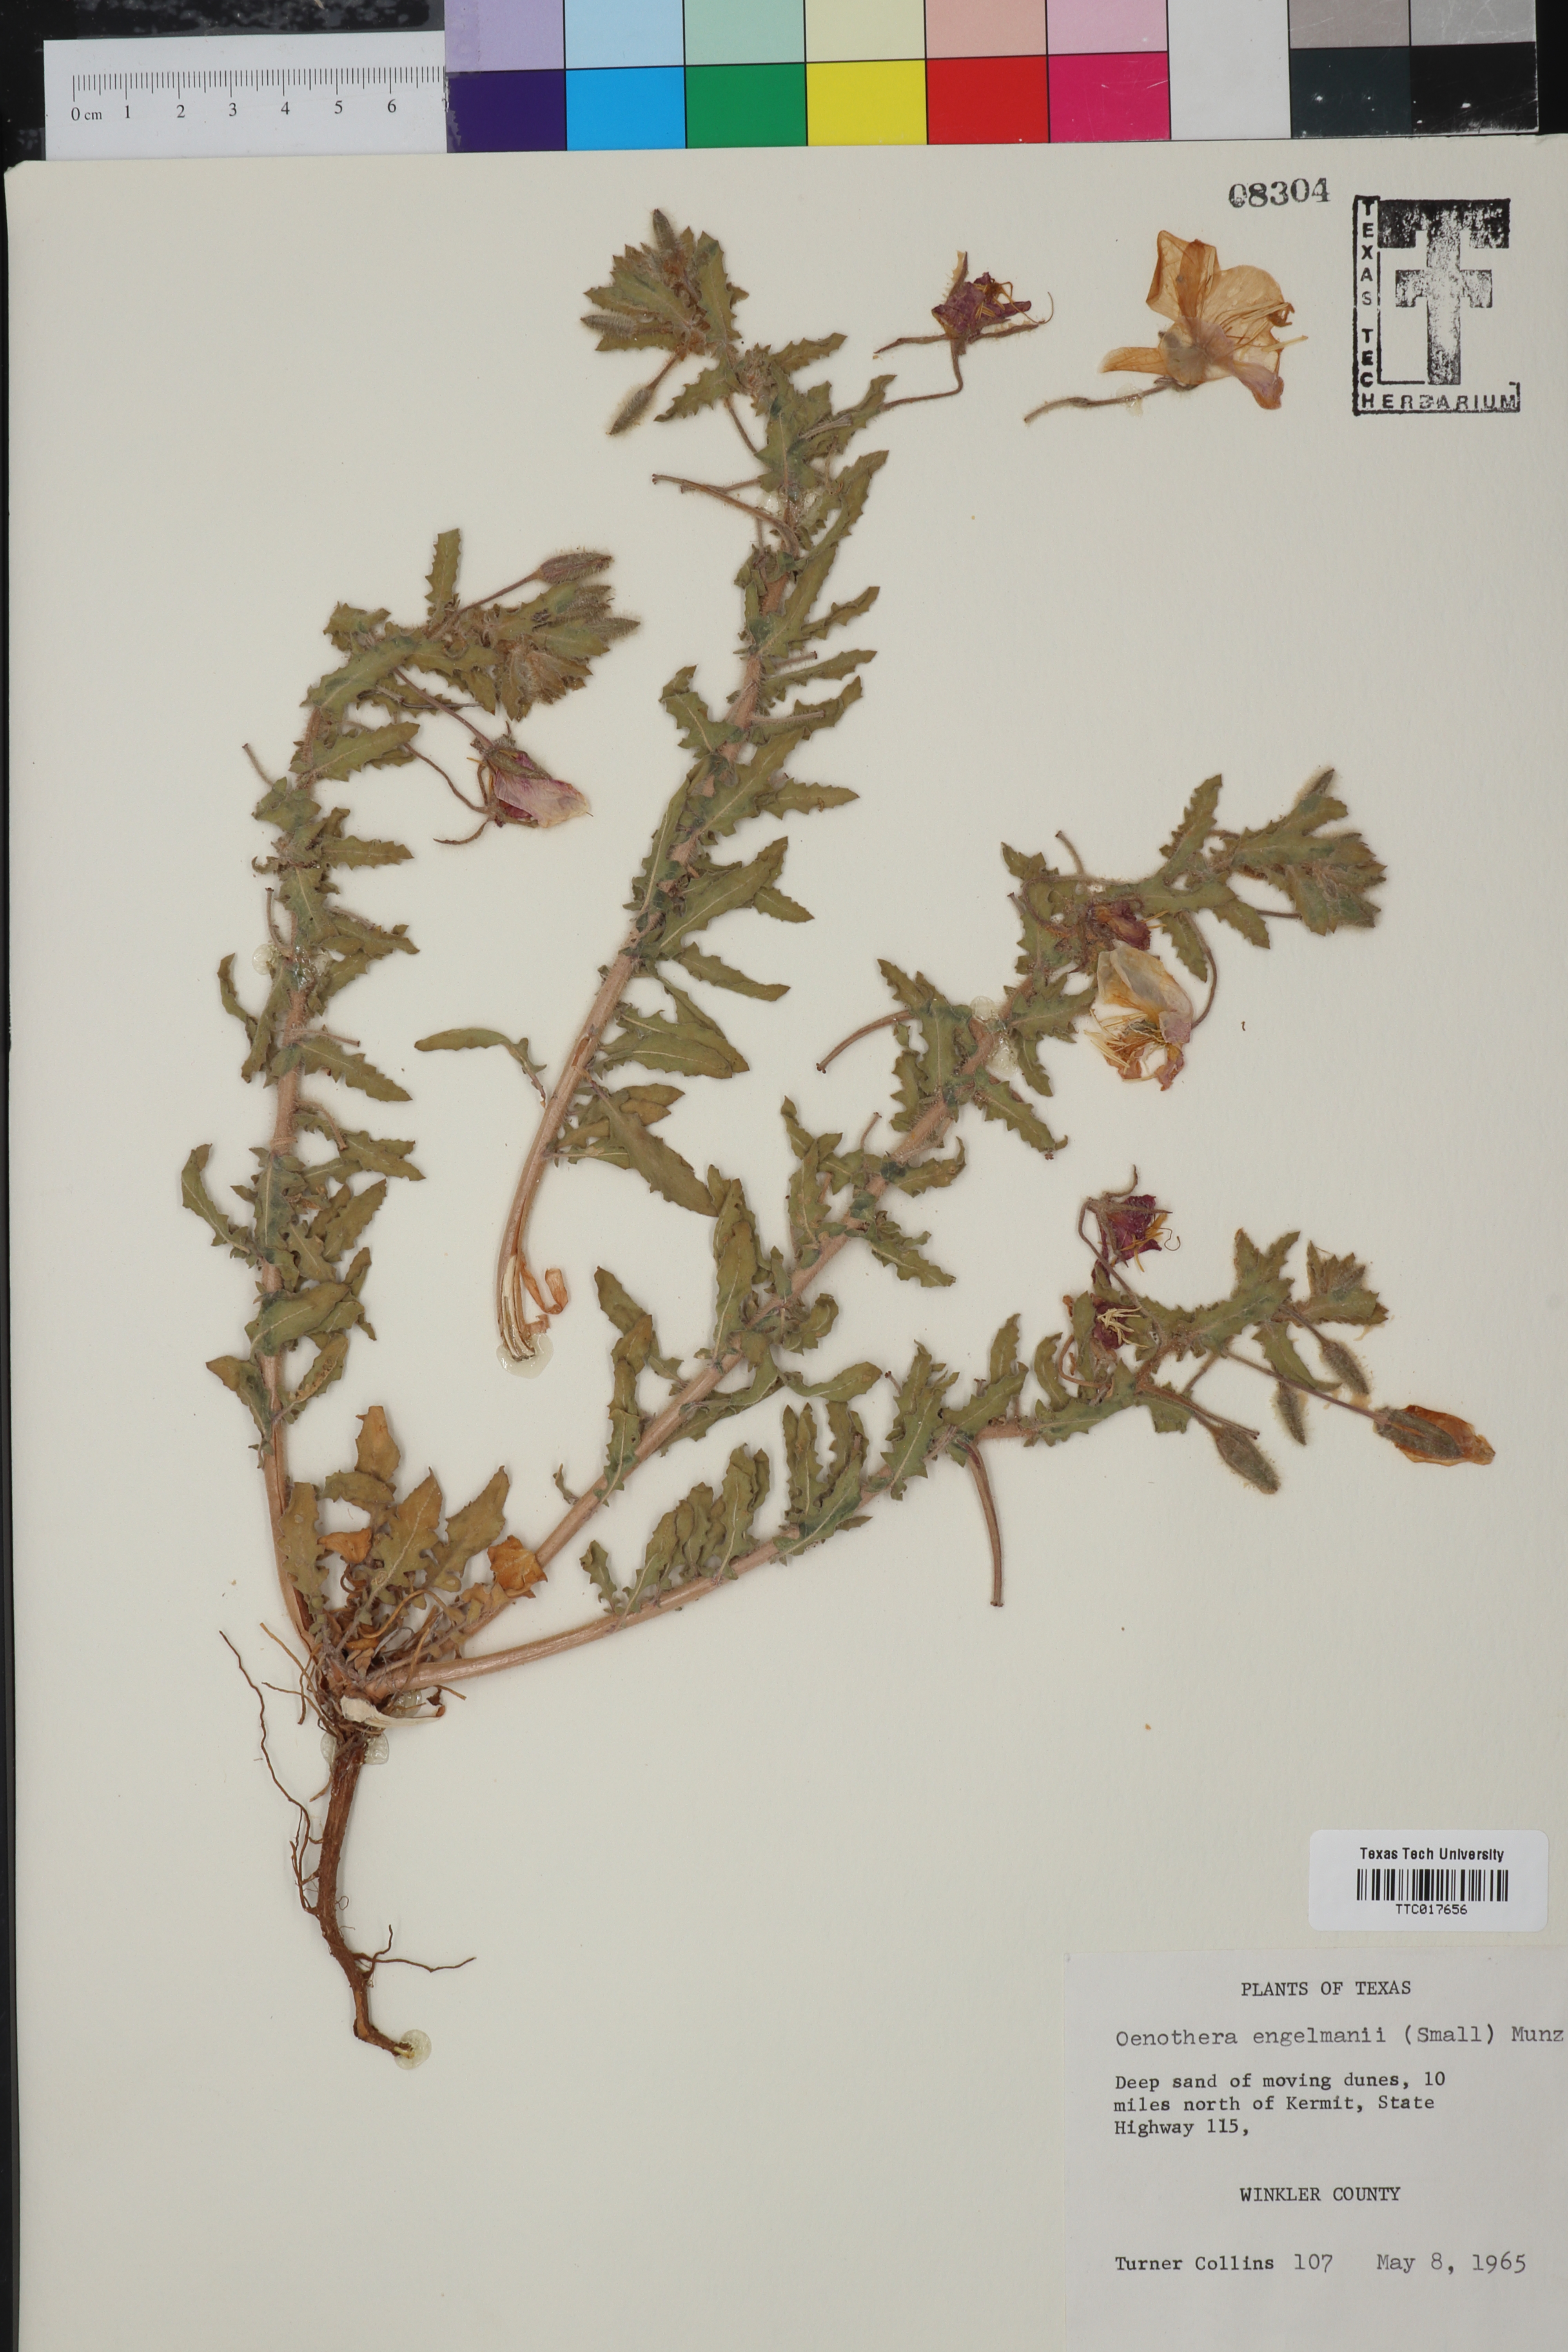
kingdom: Plantae
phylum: Tracheophyta
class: Magnoliopsida
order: Myrtales
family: Onagraceae
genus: Oenothera
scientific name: Oenothera engelmannii
